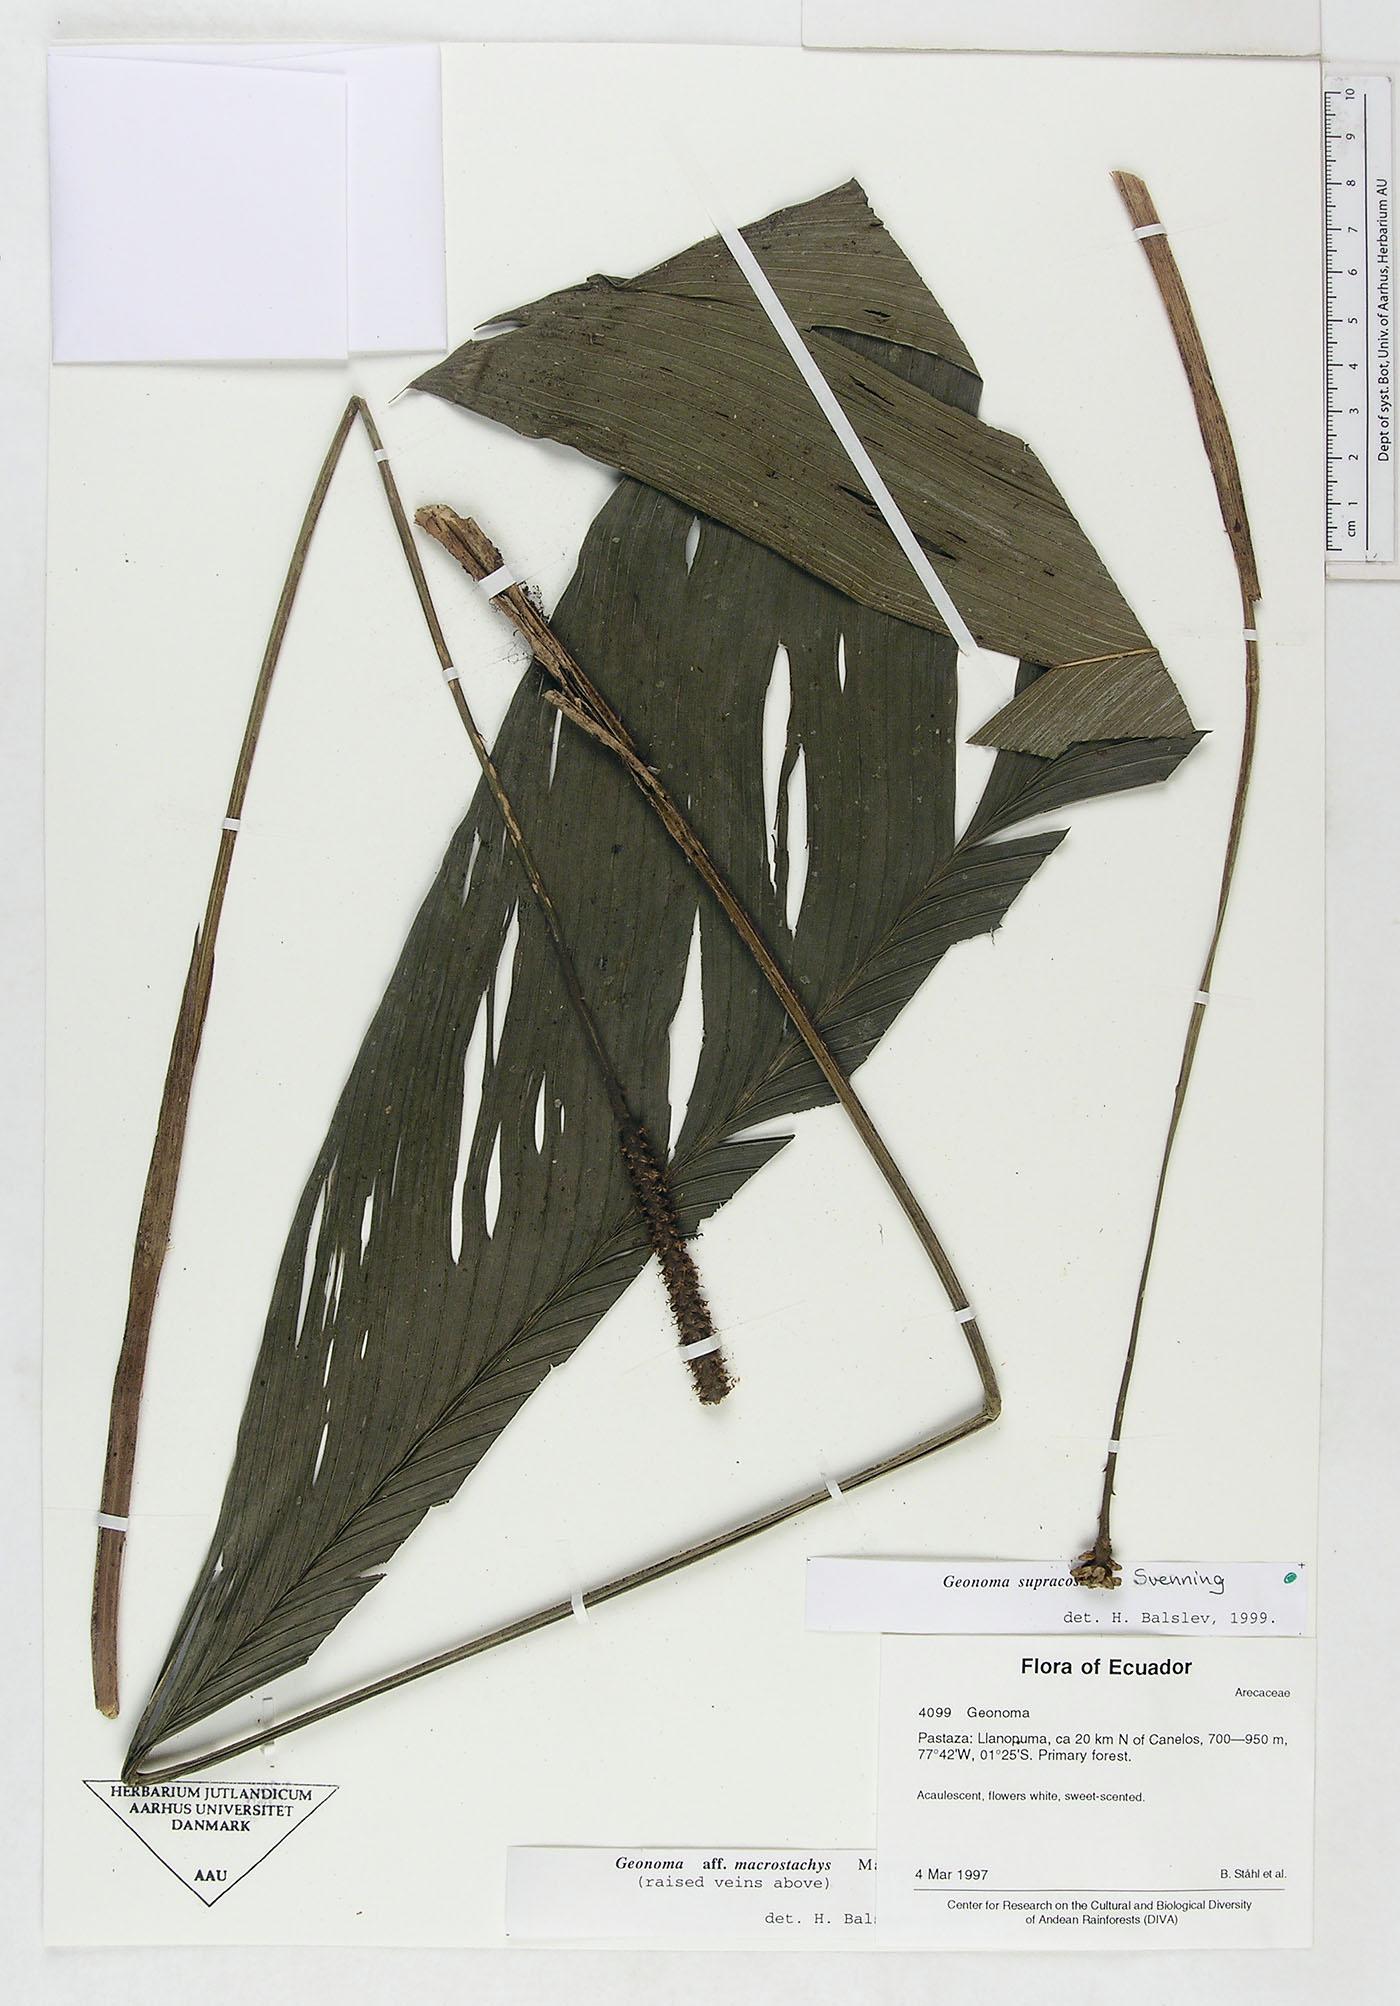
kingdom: Plantae
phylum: Tracheophyta
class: Liliopsida
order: Arecales
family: Arecaceae
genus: Geonoma
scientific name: Geonoma macrostachys
